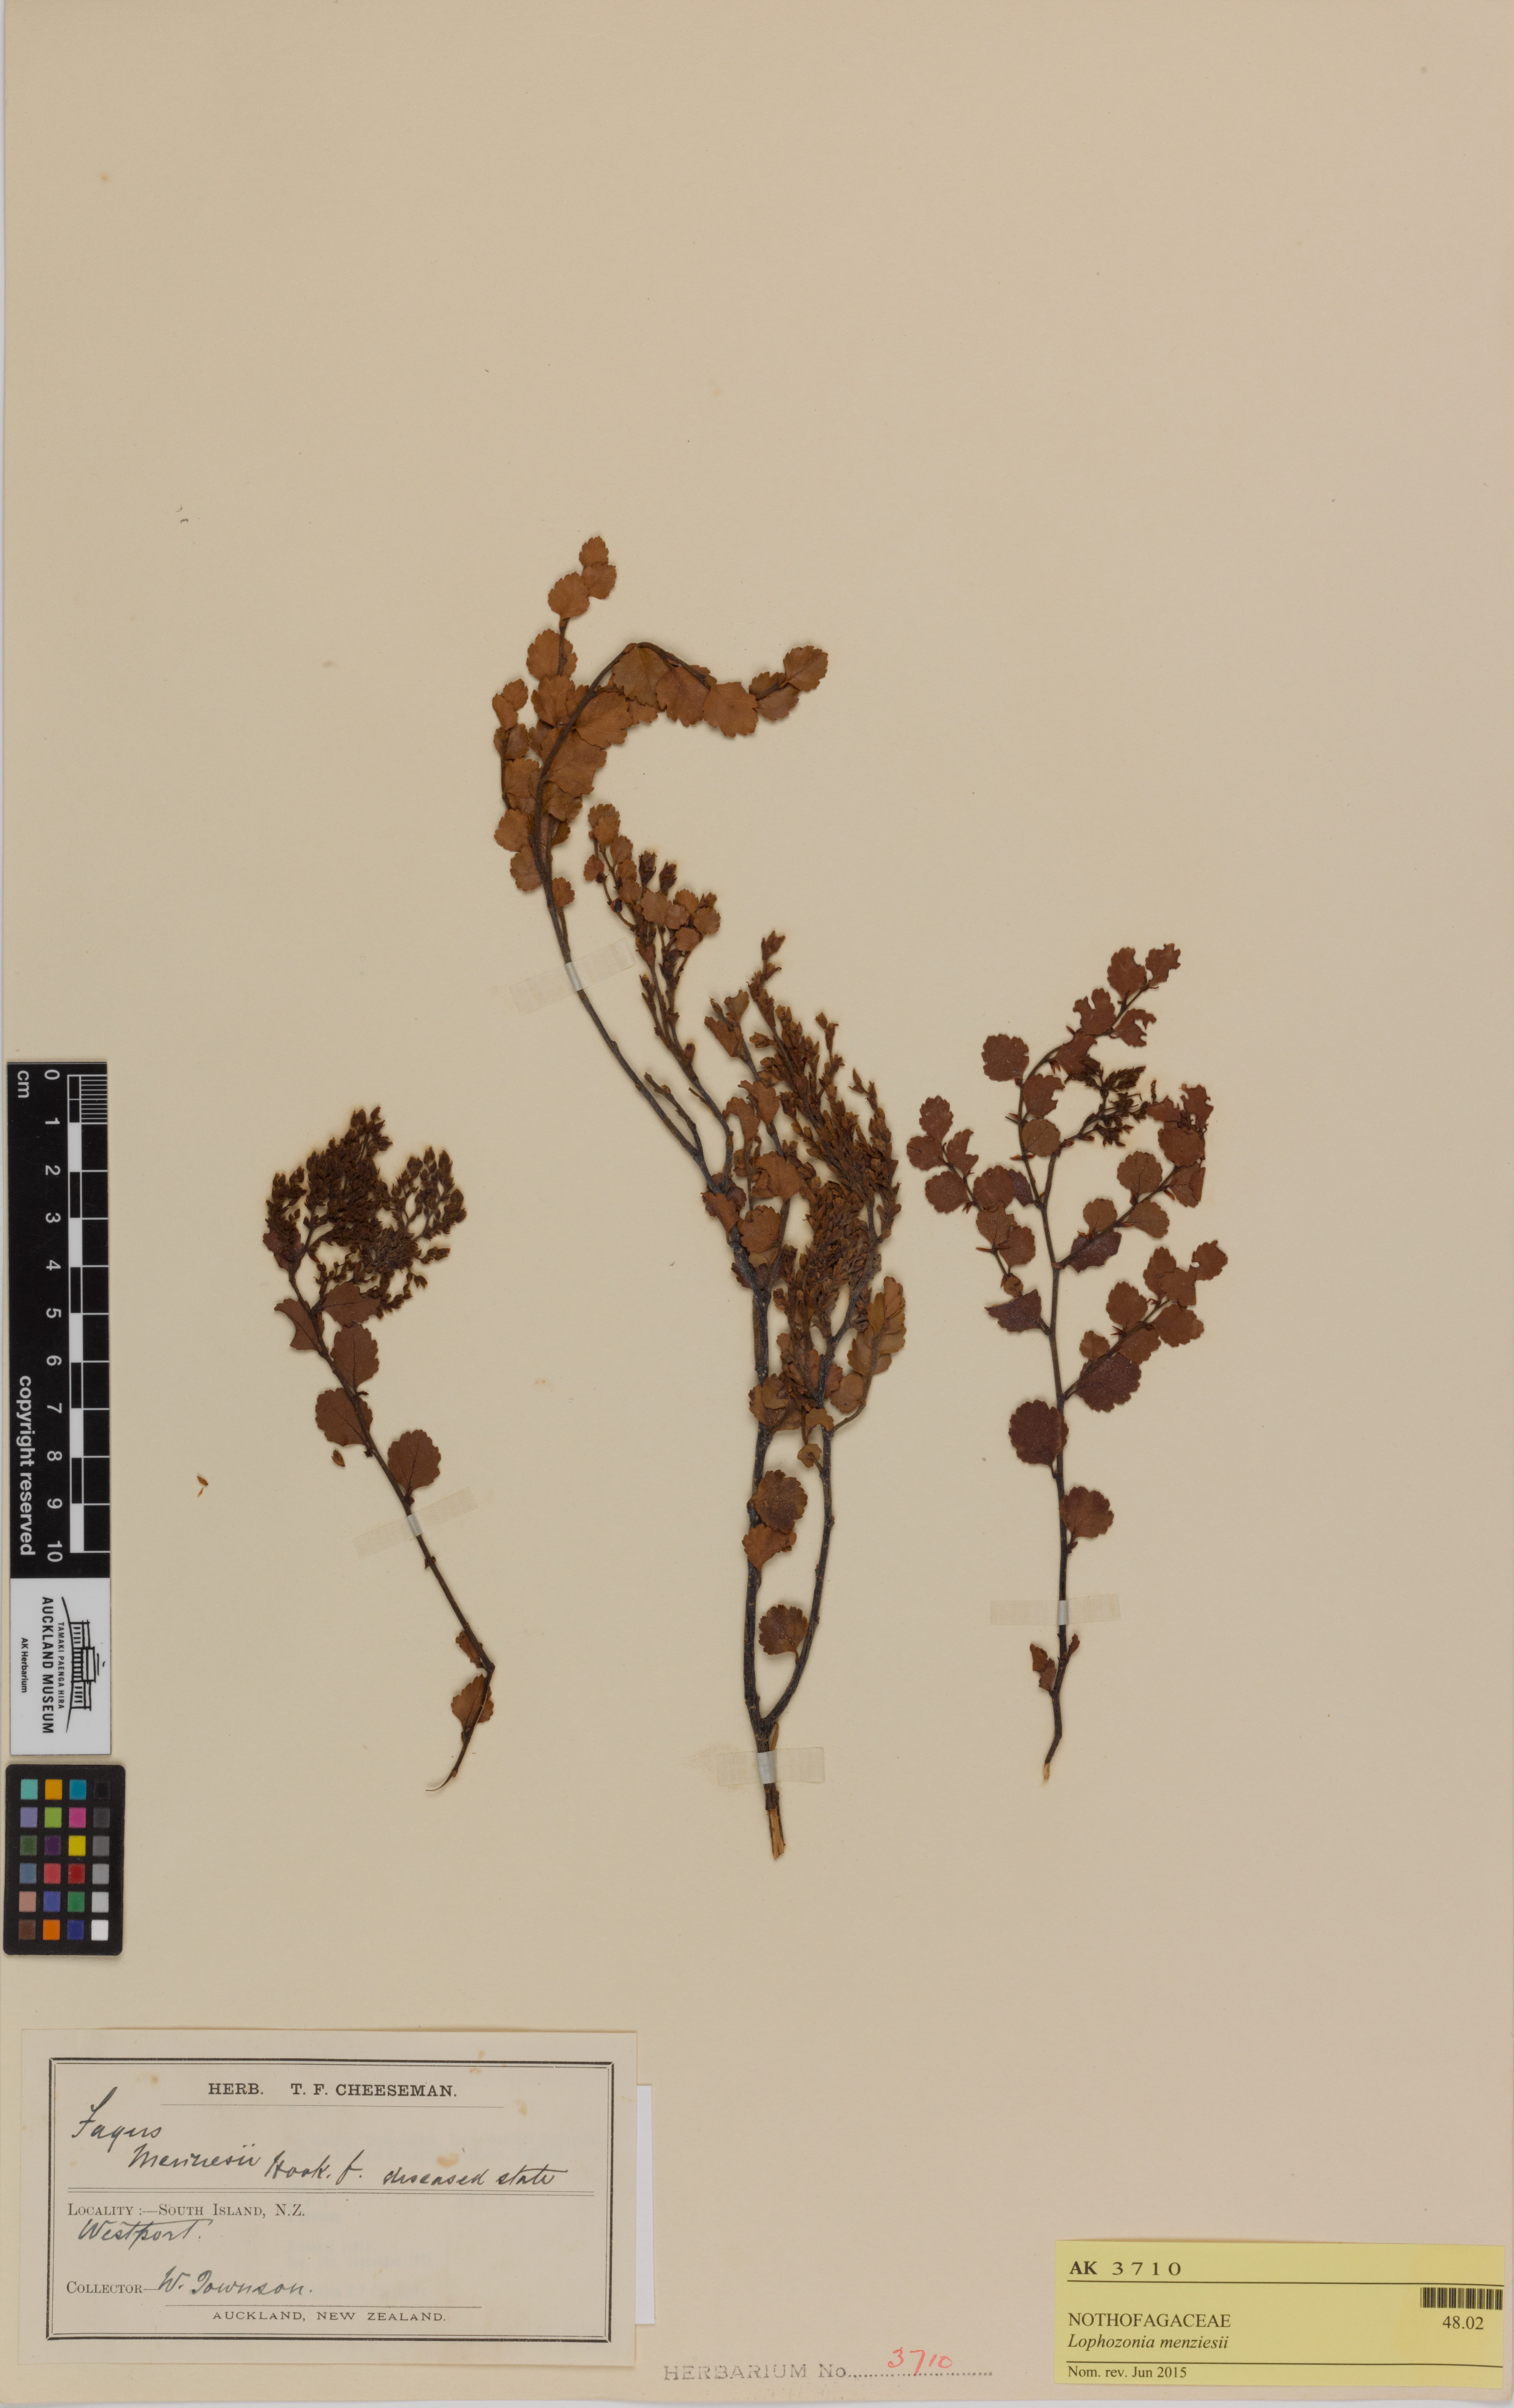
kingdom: Plantae
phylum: Tracheophyta
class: Magnoliopsida
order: Fagales
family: Nothofagaceae
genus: Nothofagus
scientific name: Nothofagus menziesii
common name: Silver beech
